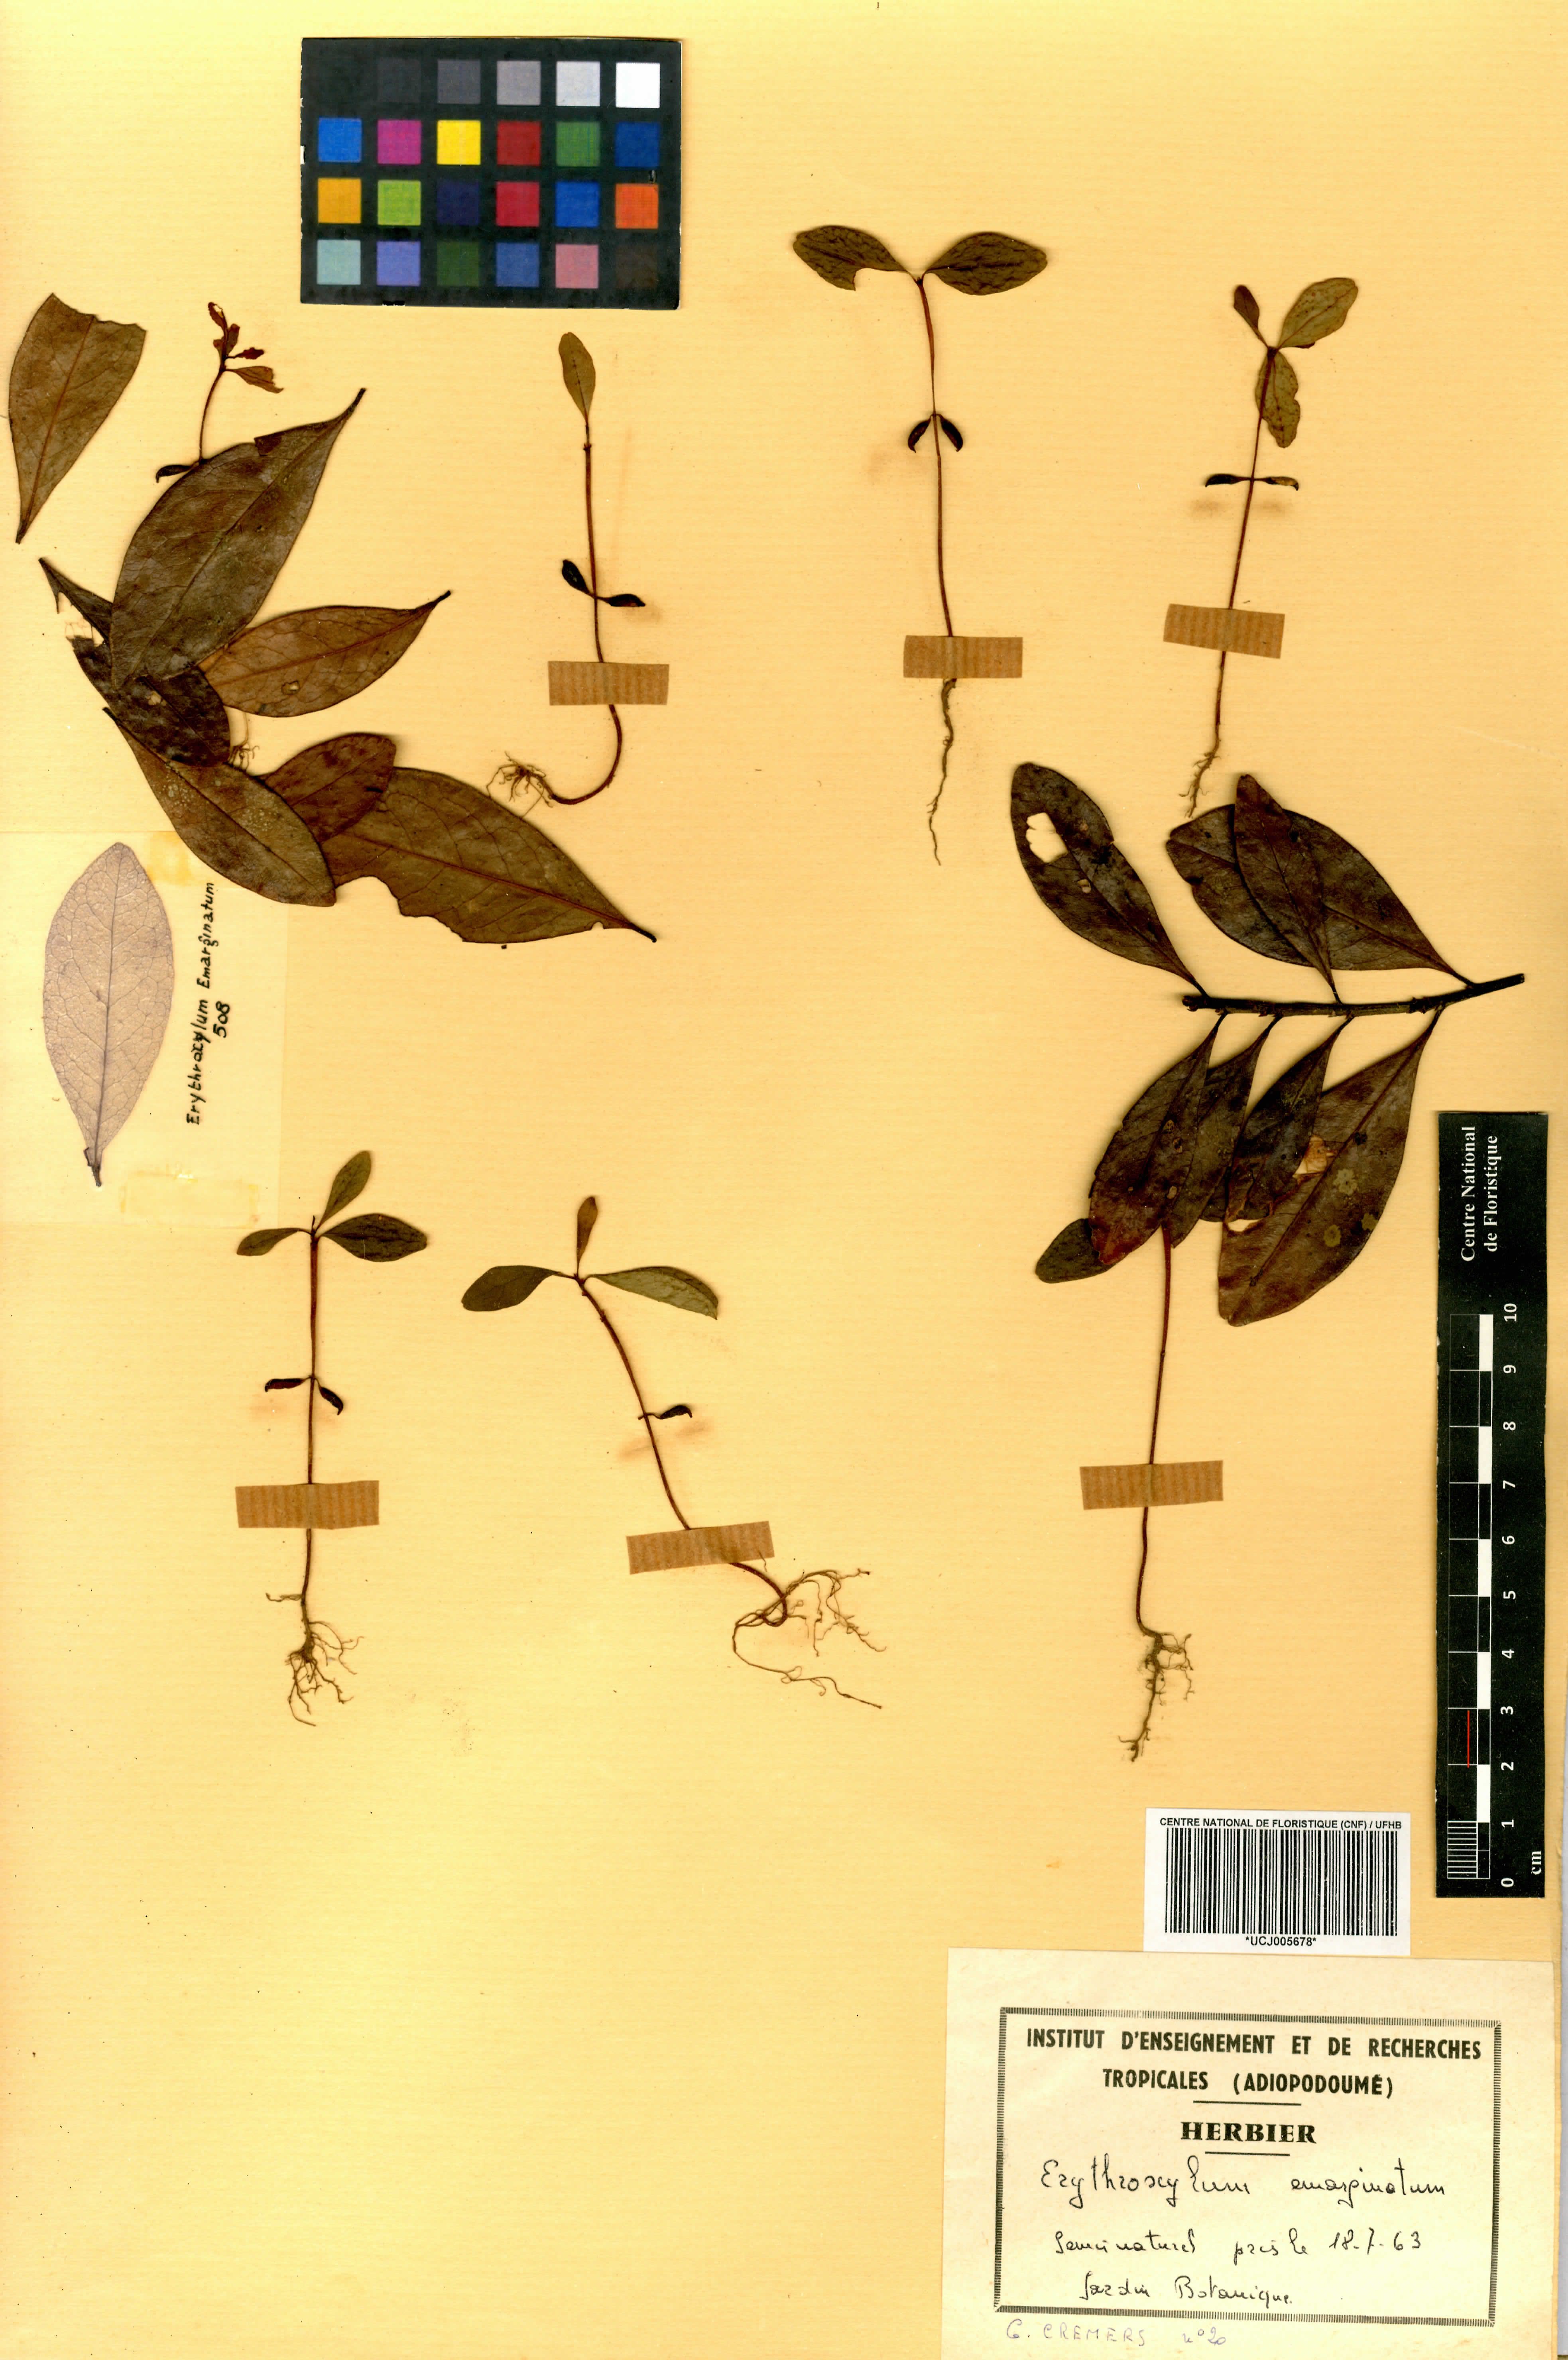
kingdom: Plantae
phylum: Tracheophyta
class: Magnoliopsida
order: Malpighiales
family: Erythroxylaceae
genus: Erythroxylum
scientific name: Erythroxylum emarginatum
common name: African coca-tree
